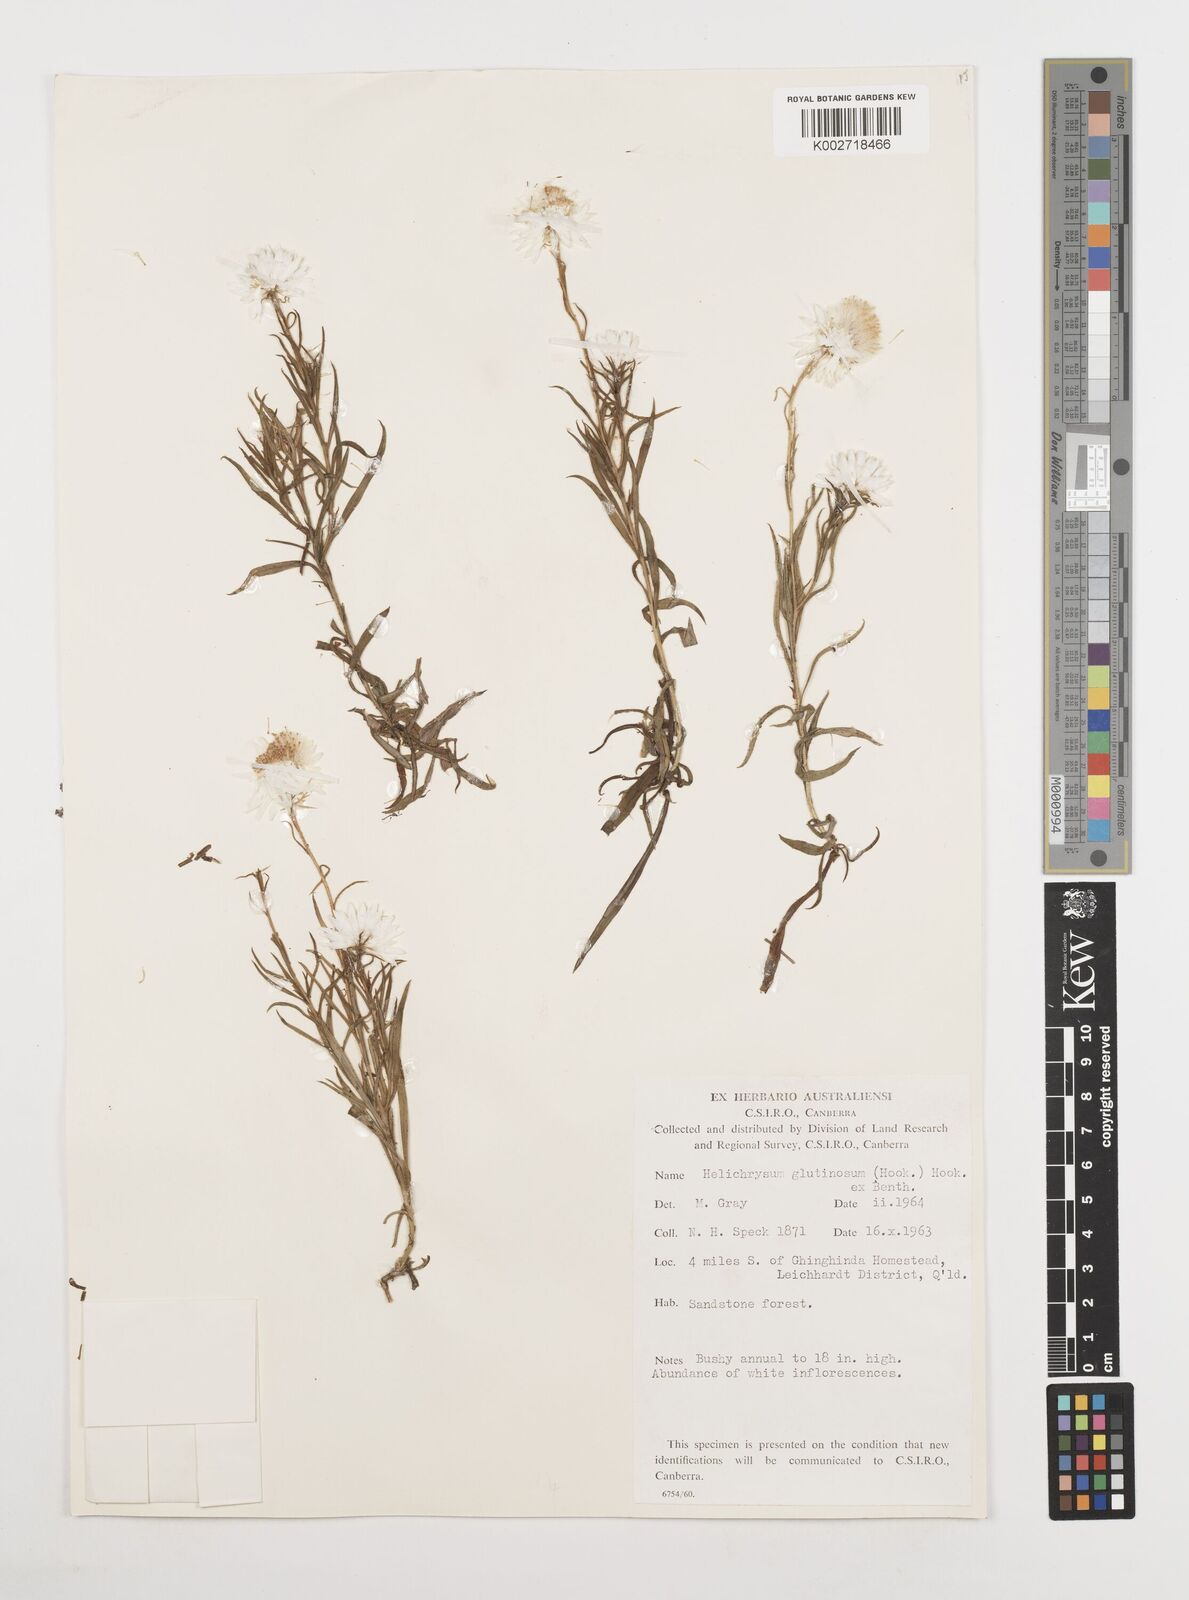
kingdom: Plantae
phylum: Tracheophyta
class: Magnoliopsida
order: Asterales
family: Asteraceae
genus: Coronidium
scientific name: Coronidium glutinosum
